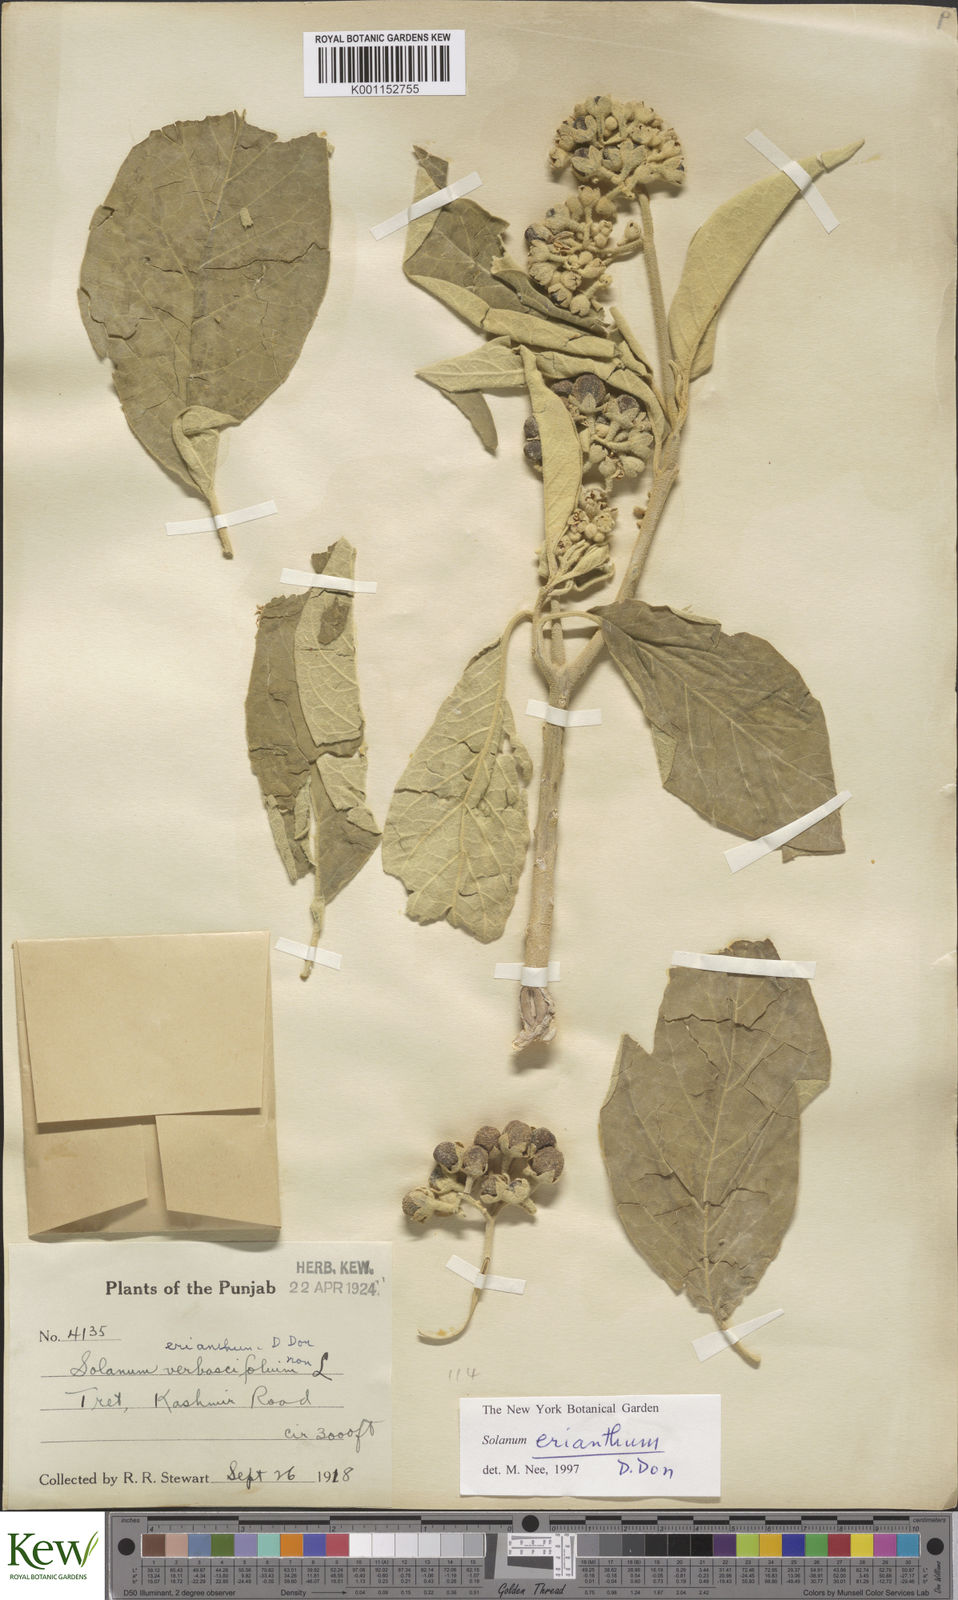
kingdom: Plantae
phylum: Tracheophyta
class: Magnoliopsida
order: Solanales
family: Solanaceae
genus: Solanum
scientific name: Solanum erianthum
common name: Tobacco-tree
